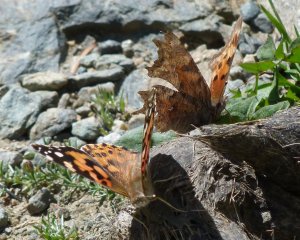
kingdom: Animalia
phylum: Arthropoda
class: Insecta
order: Lepidoptera
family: Nymphalidae
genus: Vanessa
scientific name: Vanessa cardui
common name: Painted Lady
